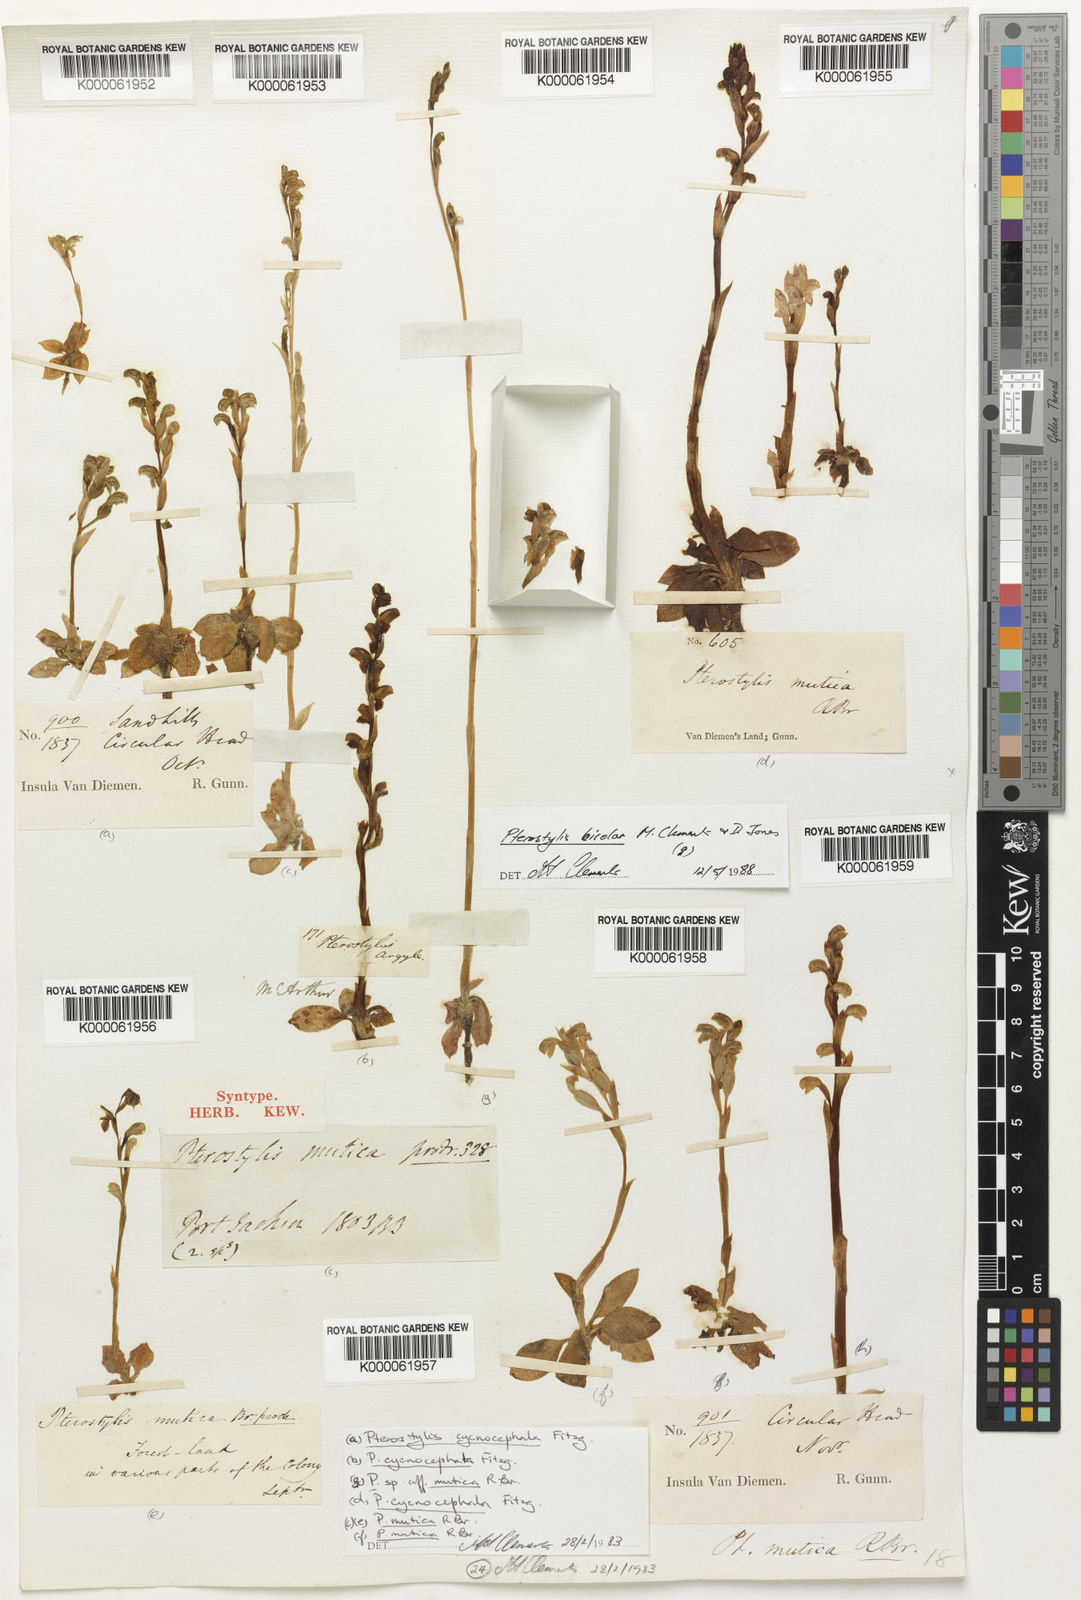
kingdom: Plantae
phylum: Tracheophyta
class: Liliopsida
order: Asparagales
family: Orchidaceae
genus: Pterostylis
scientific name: Pterostylis mutica
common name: Midget greenhood
